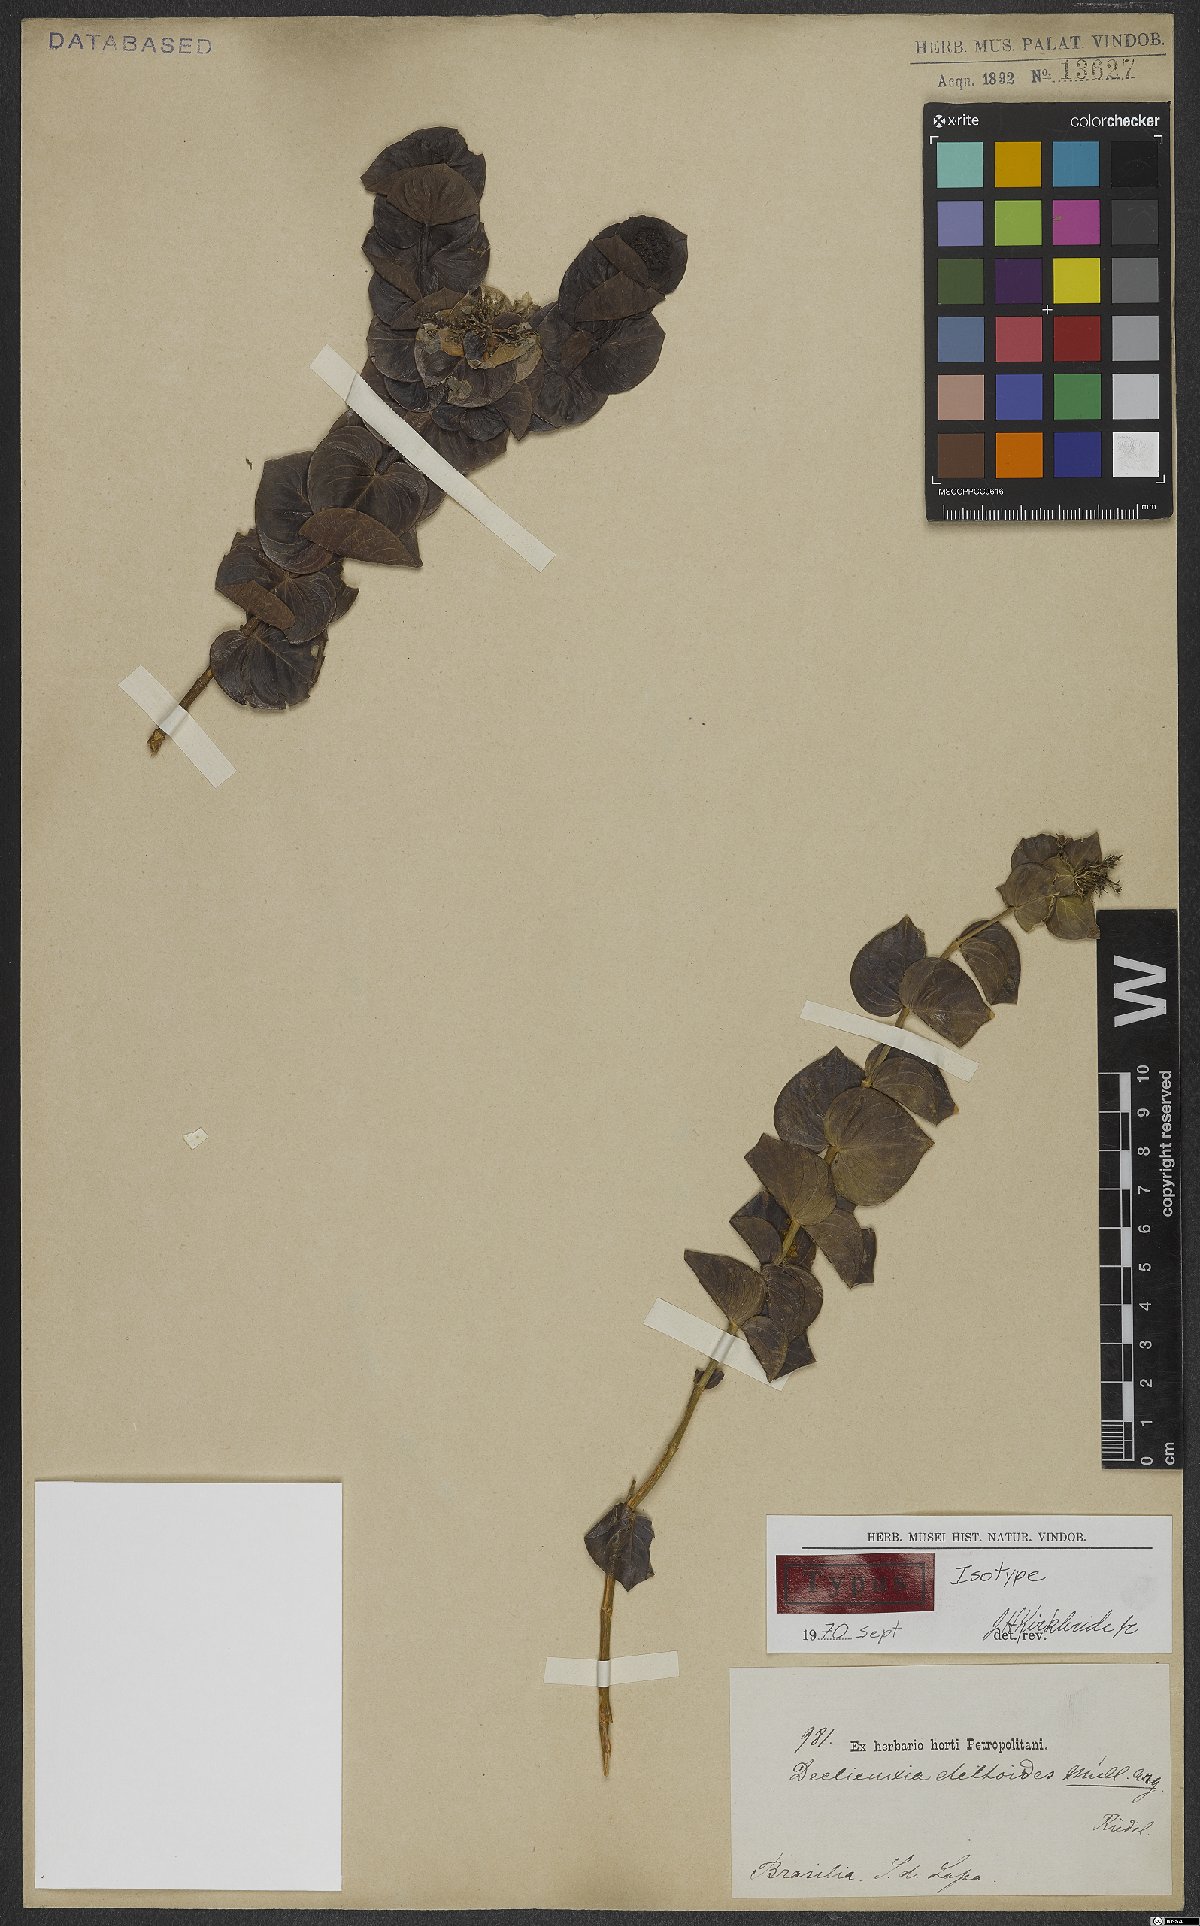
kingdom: Plantae
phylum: Tracheophyta
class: Magnoliopsida
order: Gentianales
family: Rubiaceae
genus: Declieuxia
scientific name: Declieuxia deltoidea
